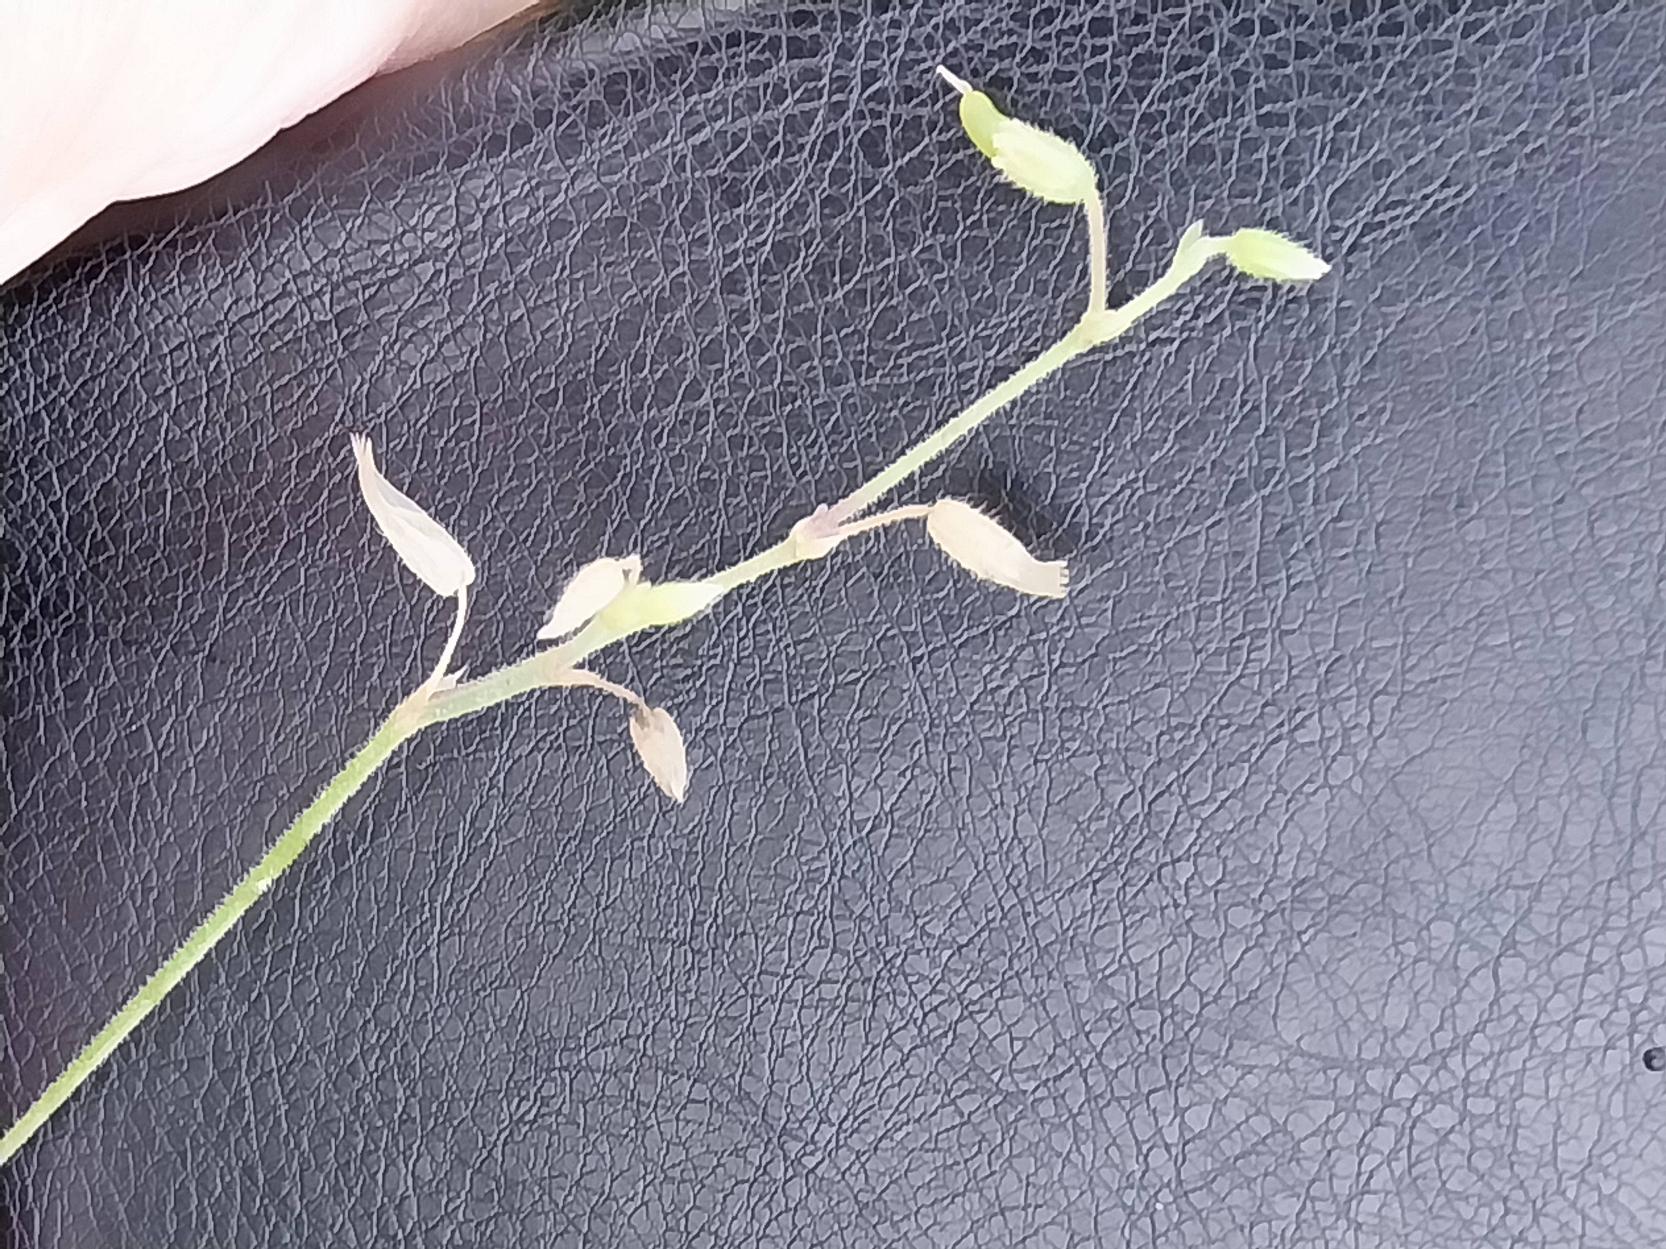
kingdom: Plantae
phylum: Tracheophyta
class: Magnoliopsida
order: Caryophyllales
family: Caryophyllaceae
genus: Cerastium
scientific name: Cerastium fontanum
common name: Almindelig hønsetarm
